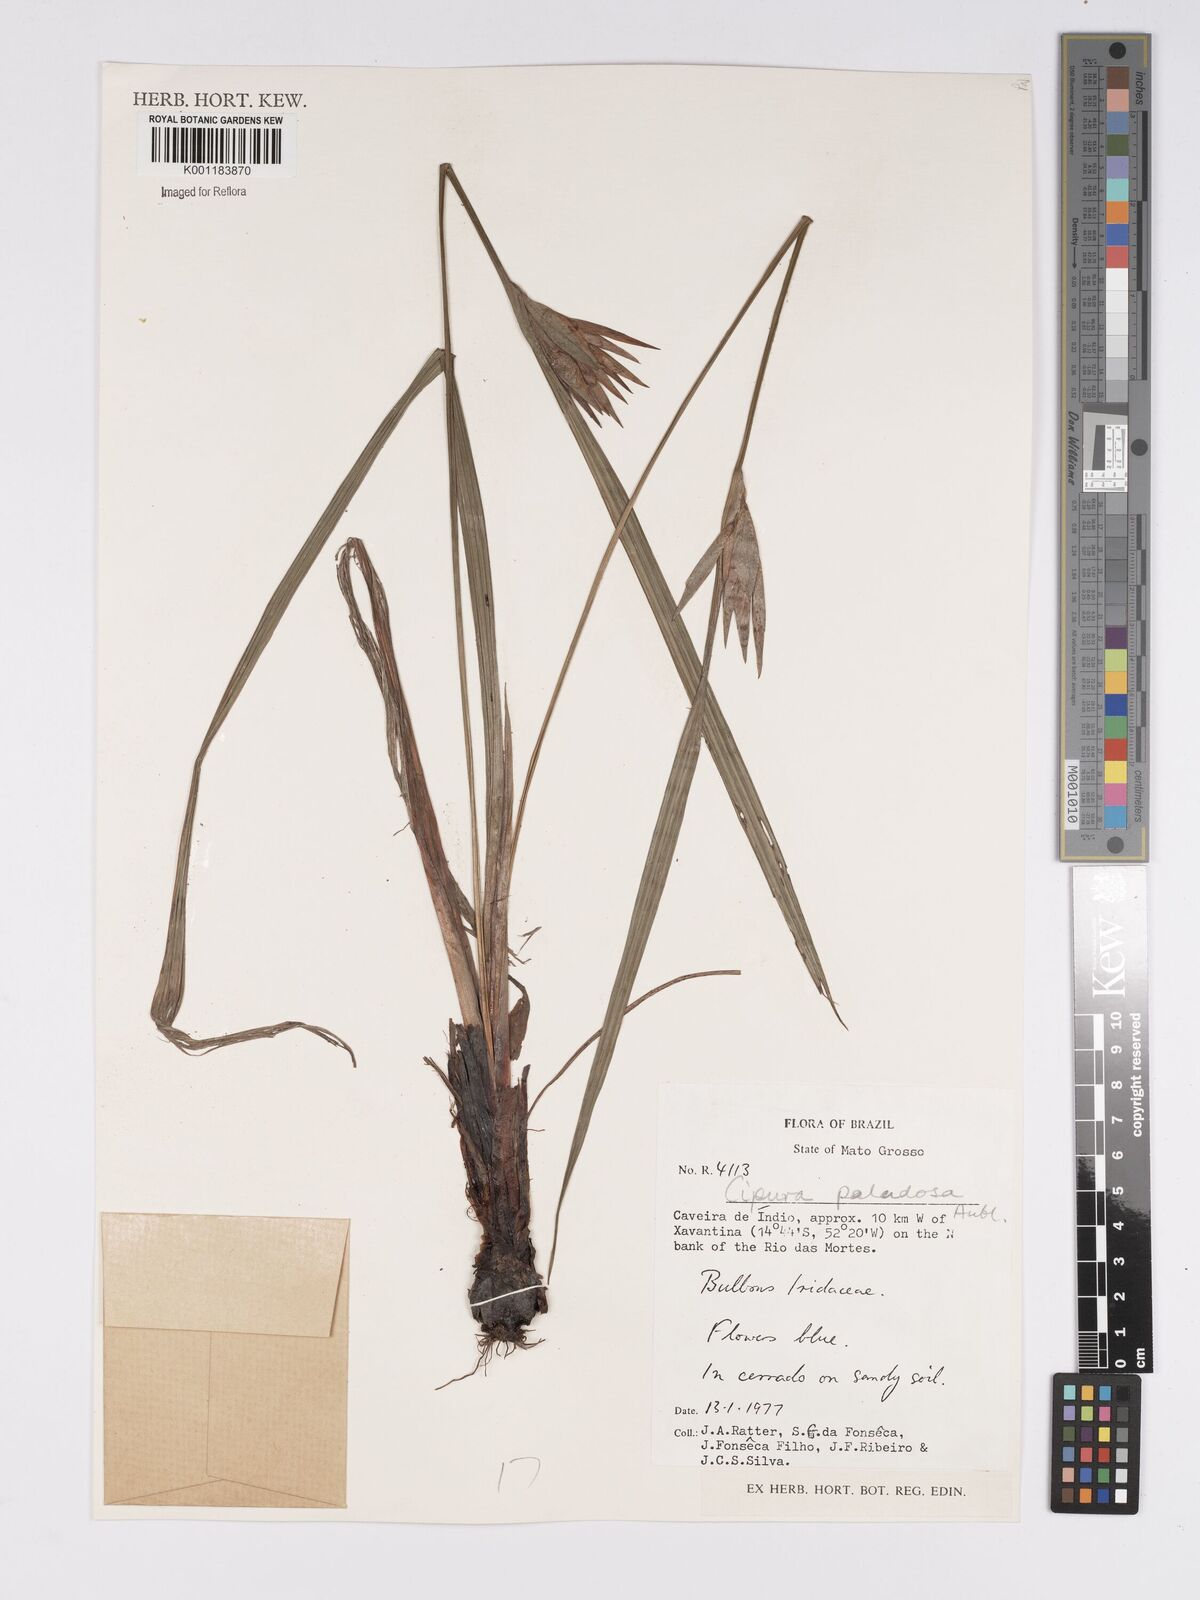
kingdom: Plantae
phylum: Tracheophyta
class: Liliopsida
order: Asparagales
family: Iridaceae
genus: Cipura
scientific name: Cipura paludosa
